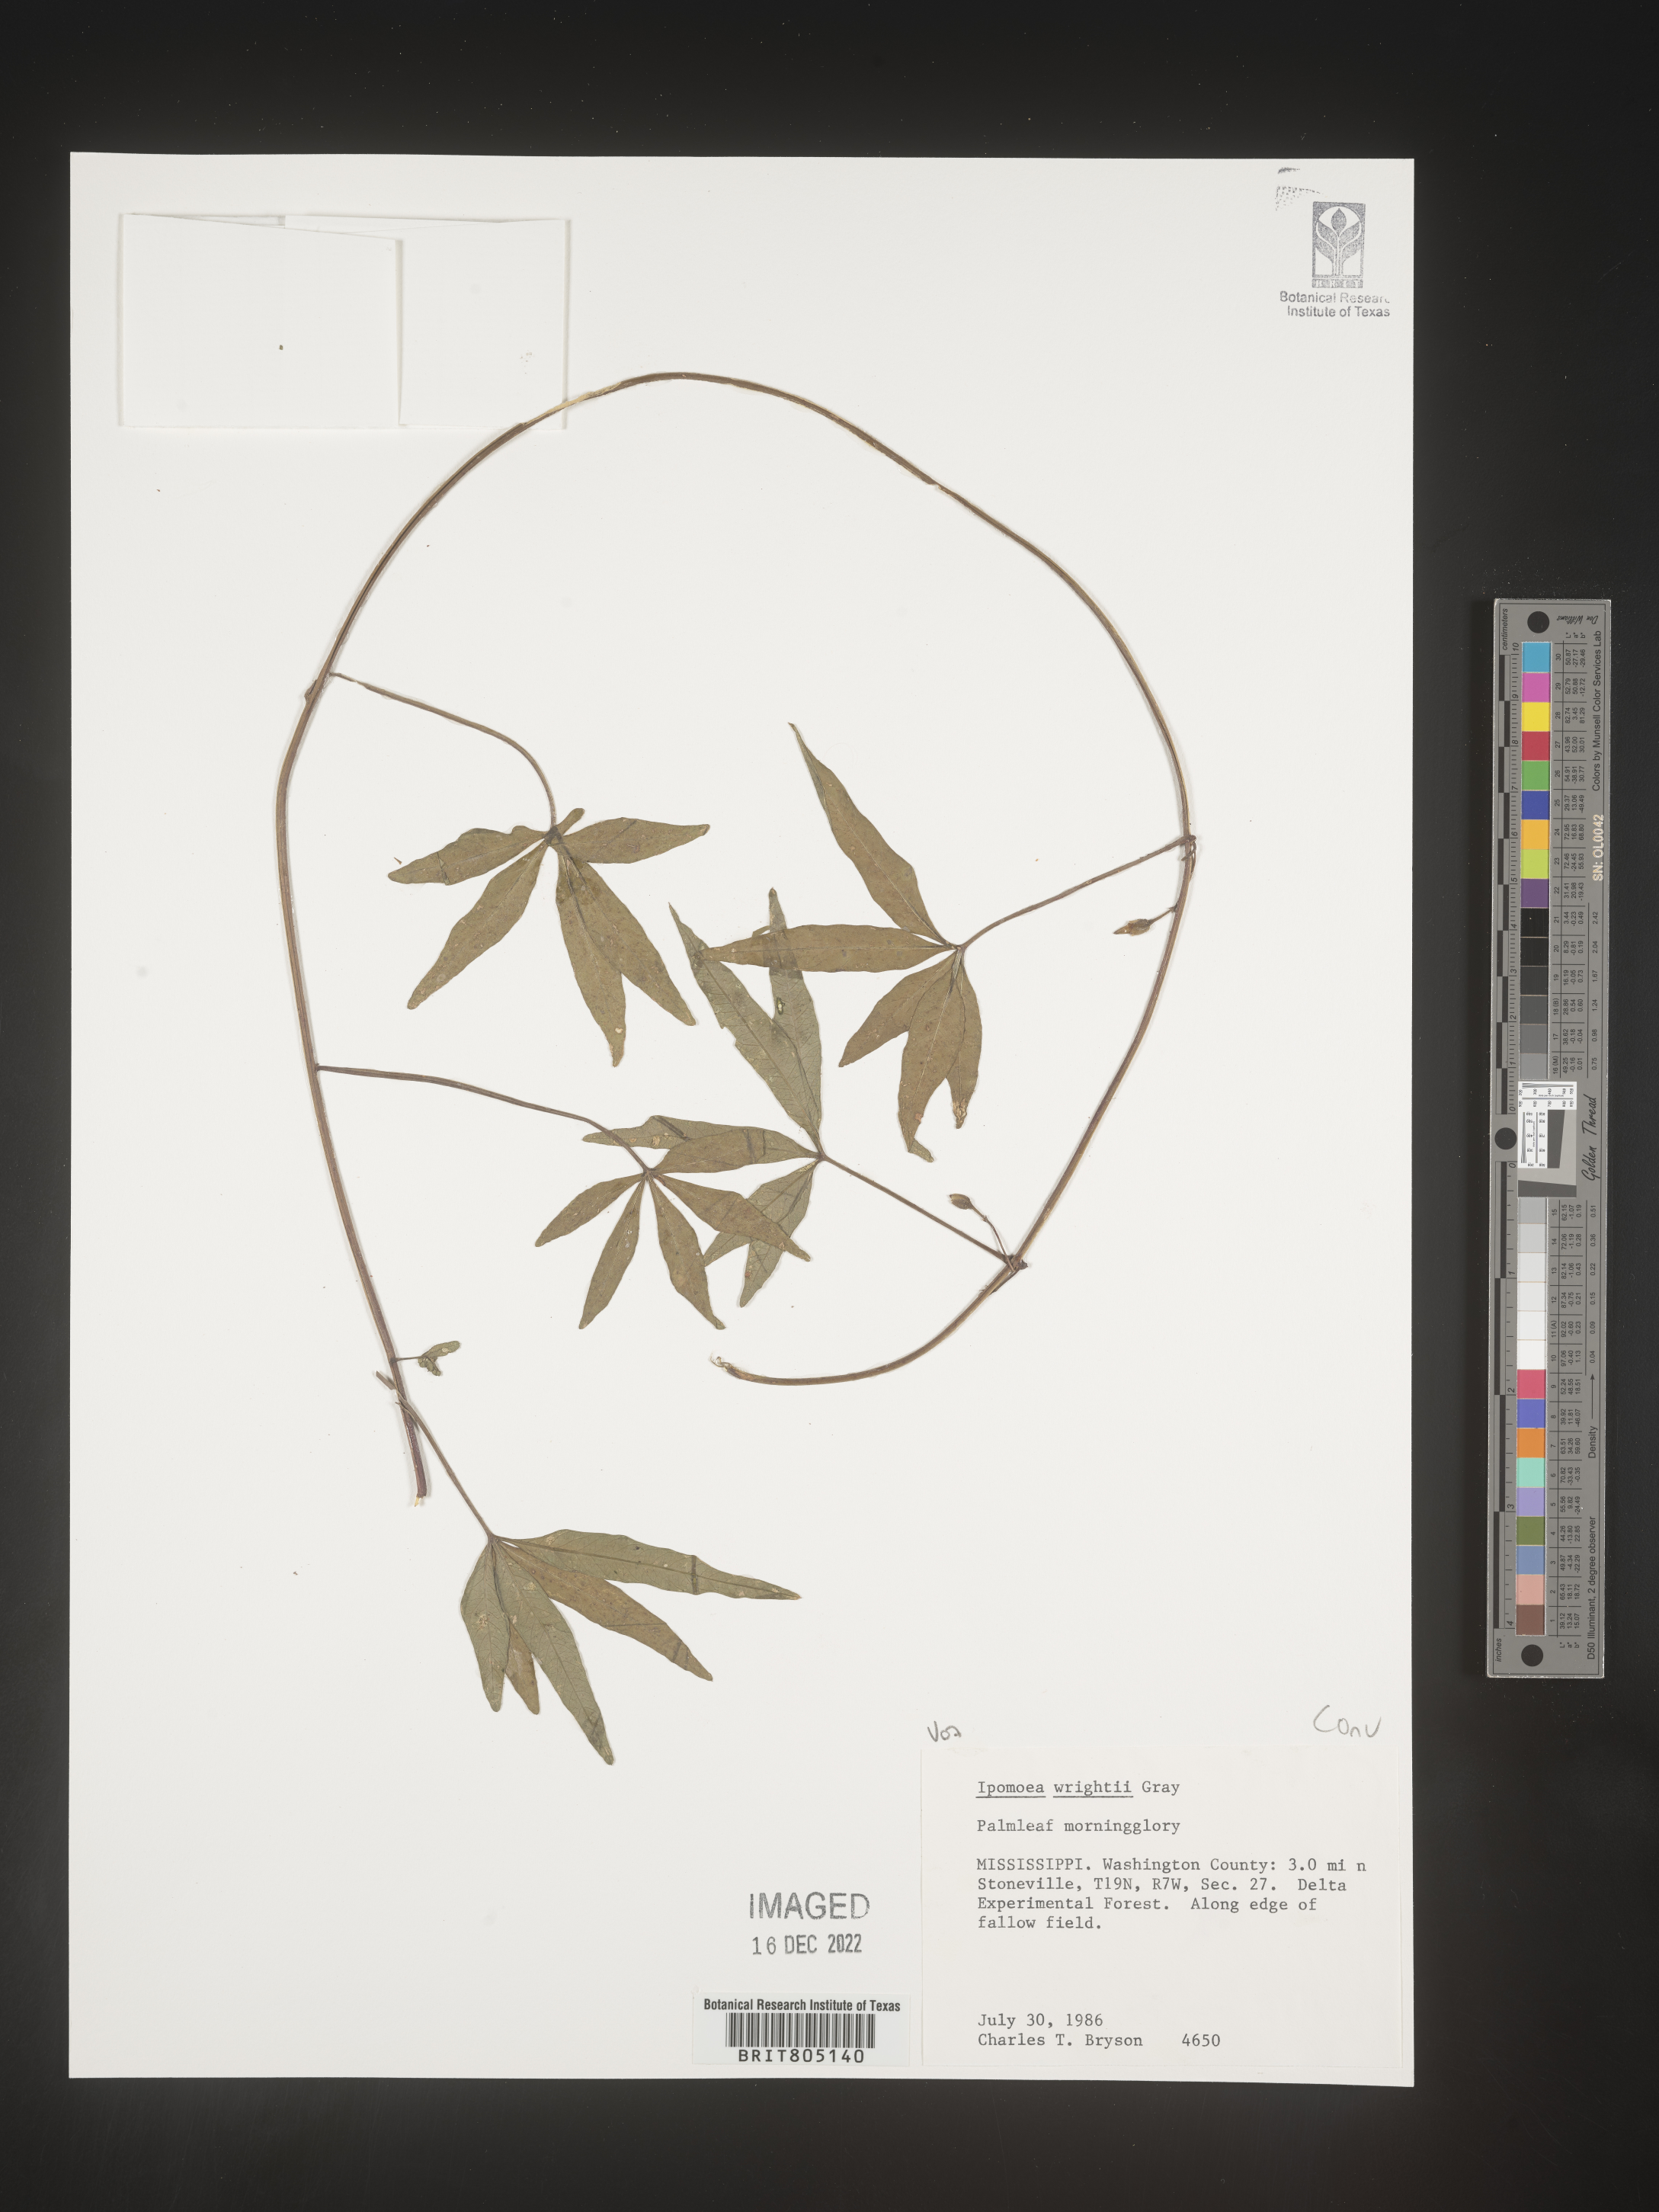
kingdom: Plantae
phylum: Tracheophyta
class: Magnoliopsida
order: Solanales
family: Convolvulaceae
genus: Ipomoea
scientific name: Ipomoea heptaphylla
